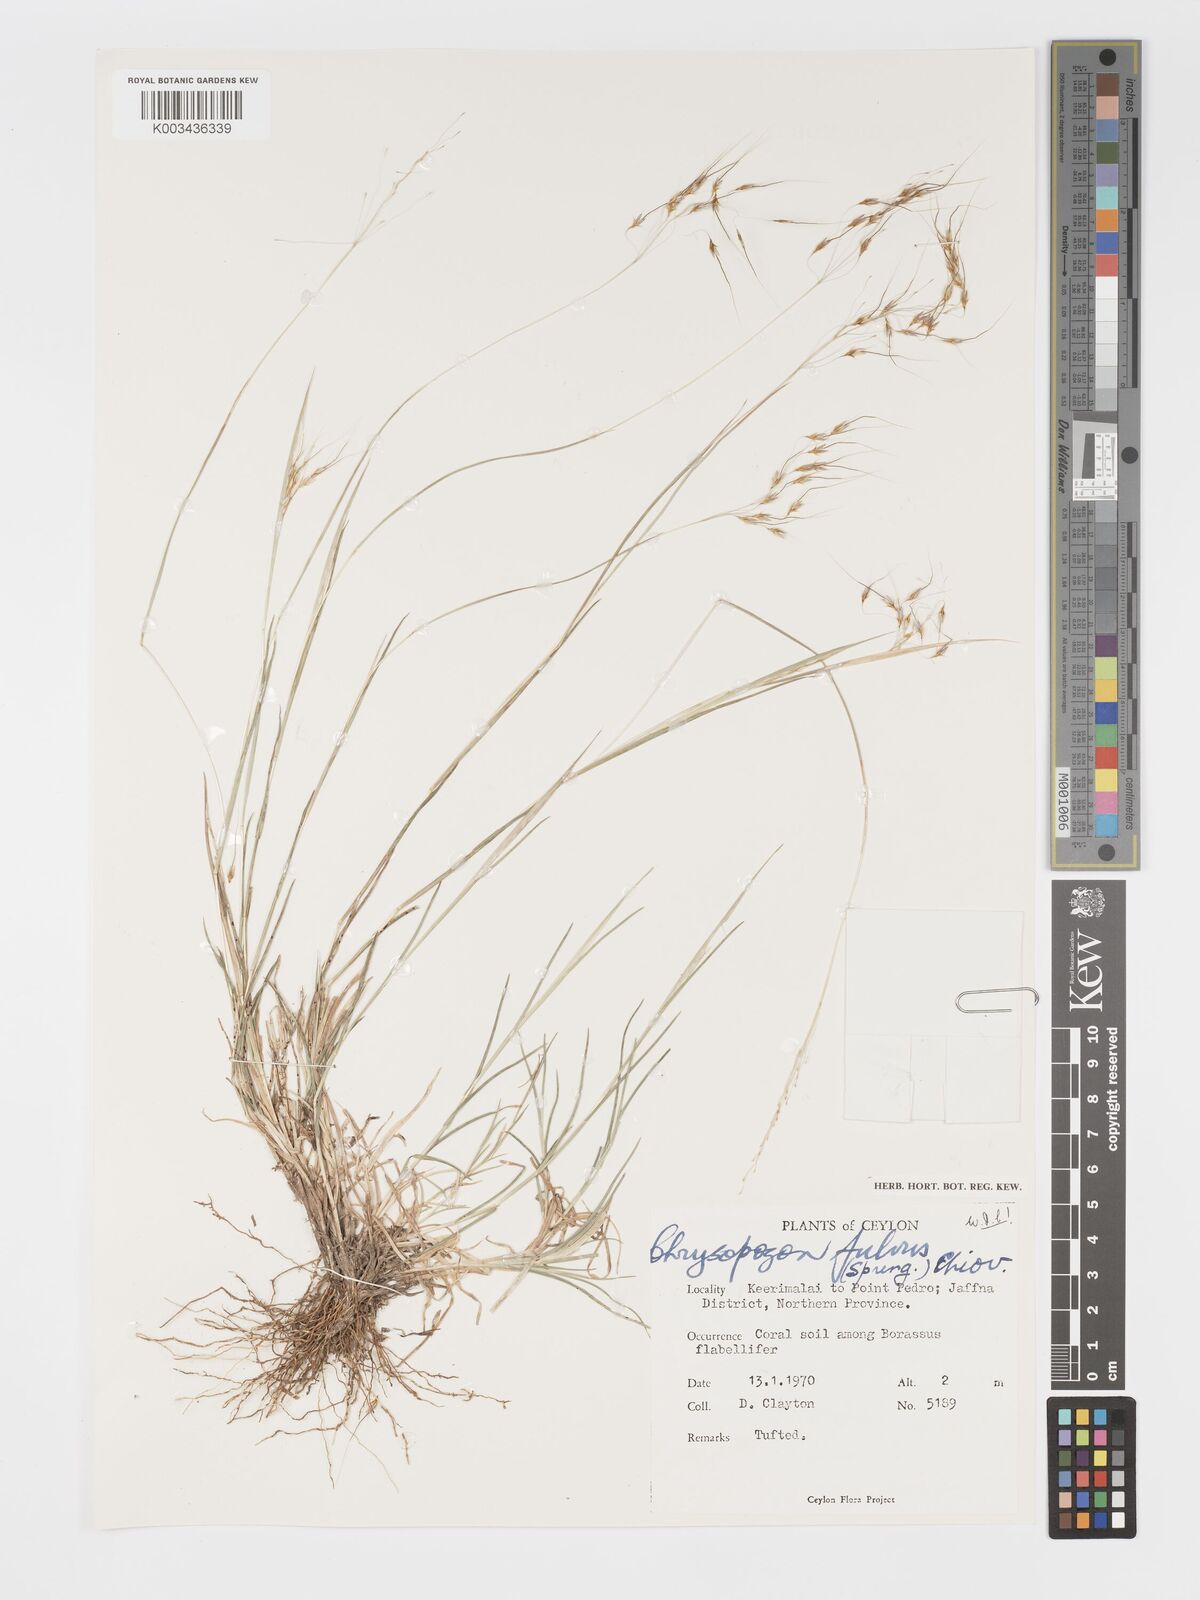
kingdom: Plantae
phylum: Tracheophyta
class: Liliopsida
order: Poales
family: Poaceae
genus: Chrysopogon
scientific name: Chrysopogon fulvus
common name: Red false beardgrass
